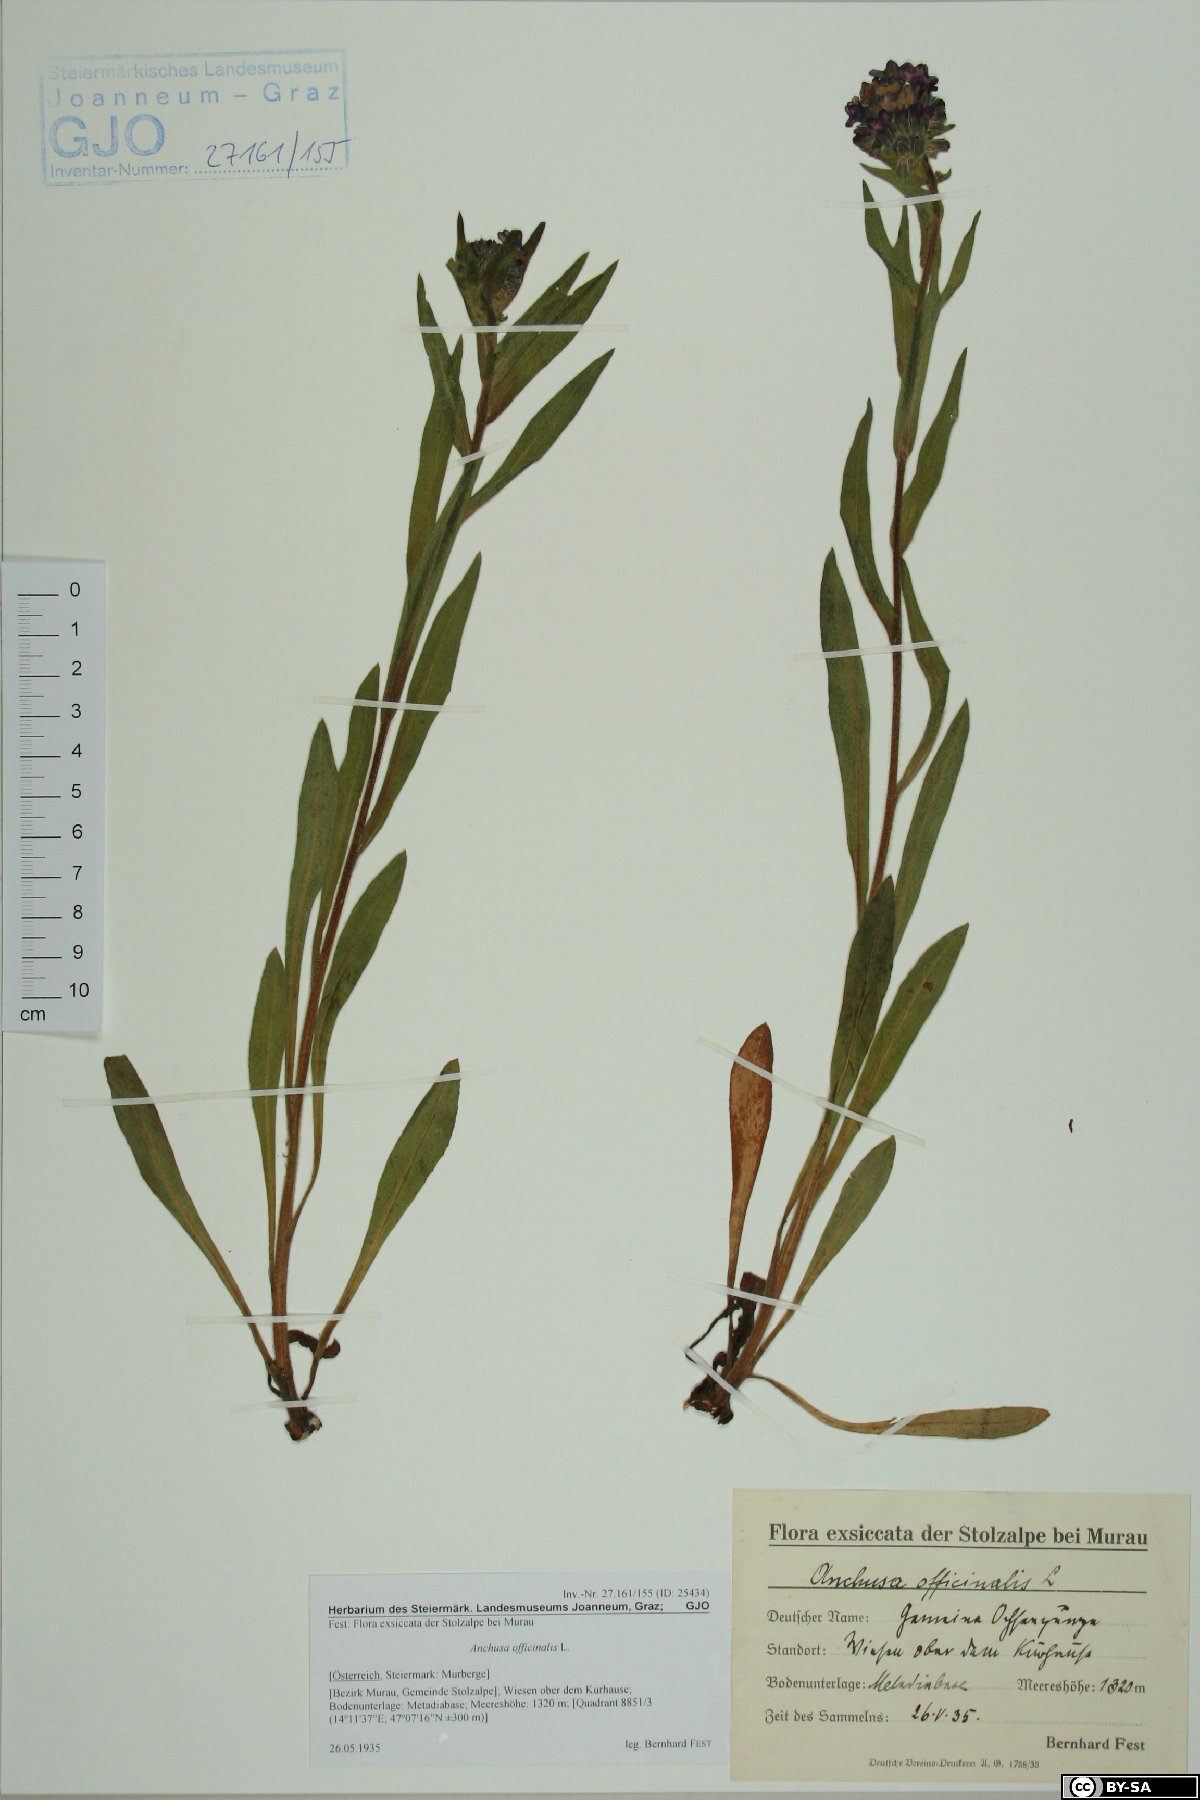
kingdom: Plantae
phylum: Tracheophyta
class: Magnoliopsida
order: Boraginales
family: Boraginaceae
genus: Anchusa
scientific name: Anchusa officinalis
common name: Alkanet
